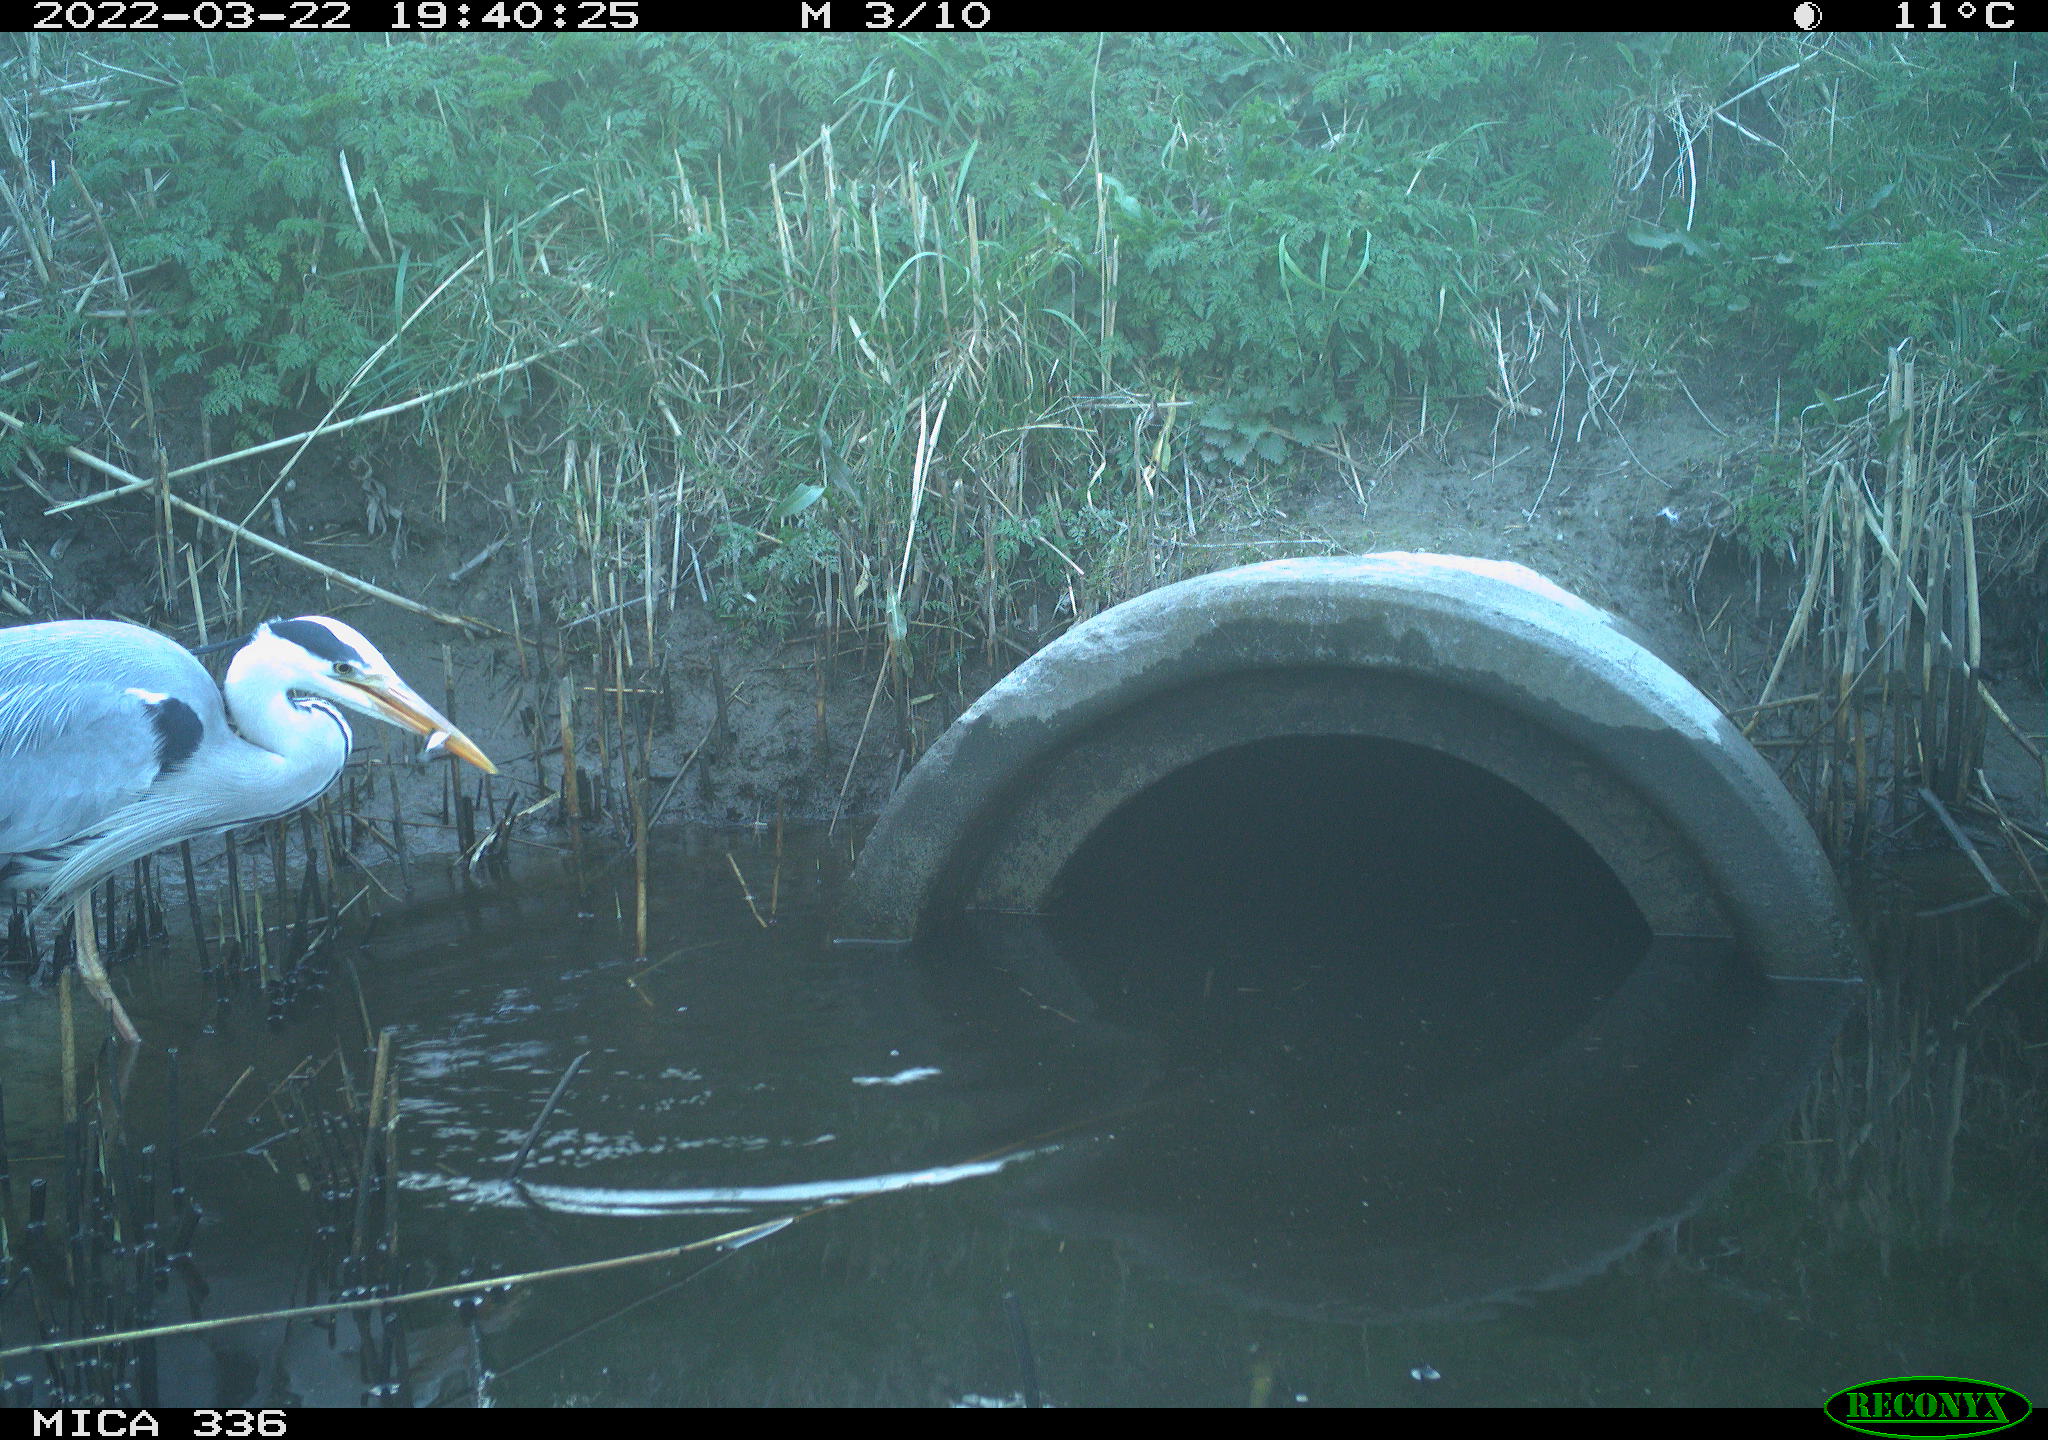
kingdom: Animalia
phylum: Chordata
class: Aves
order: Pelecaniformes
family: Ardeidae
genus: Ardea
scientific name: Ardea cinerea
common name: Grey heron
